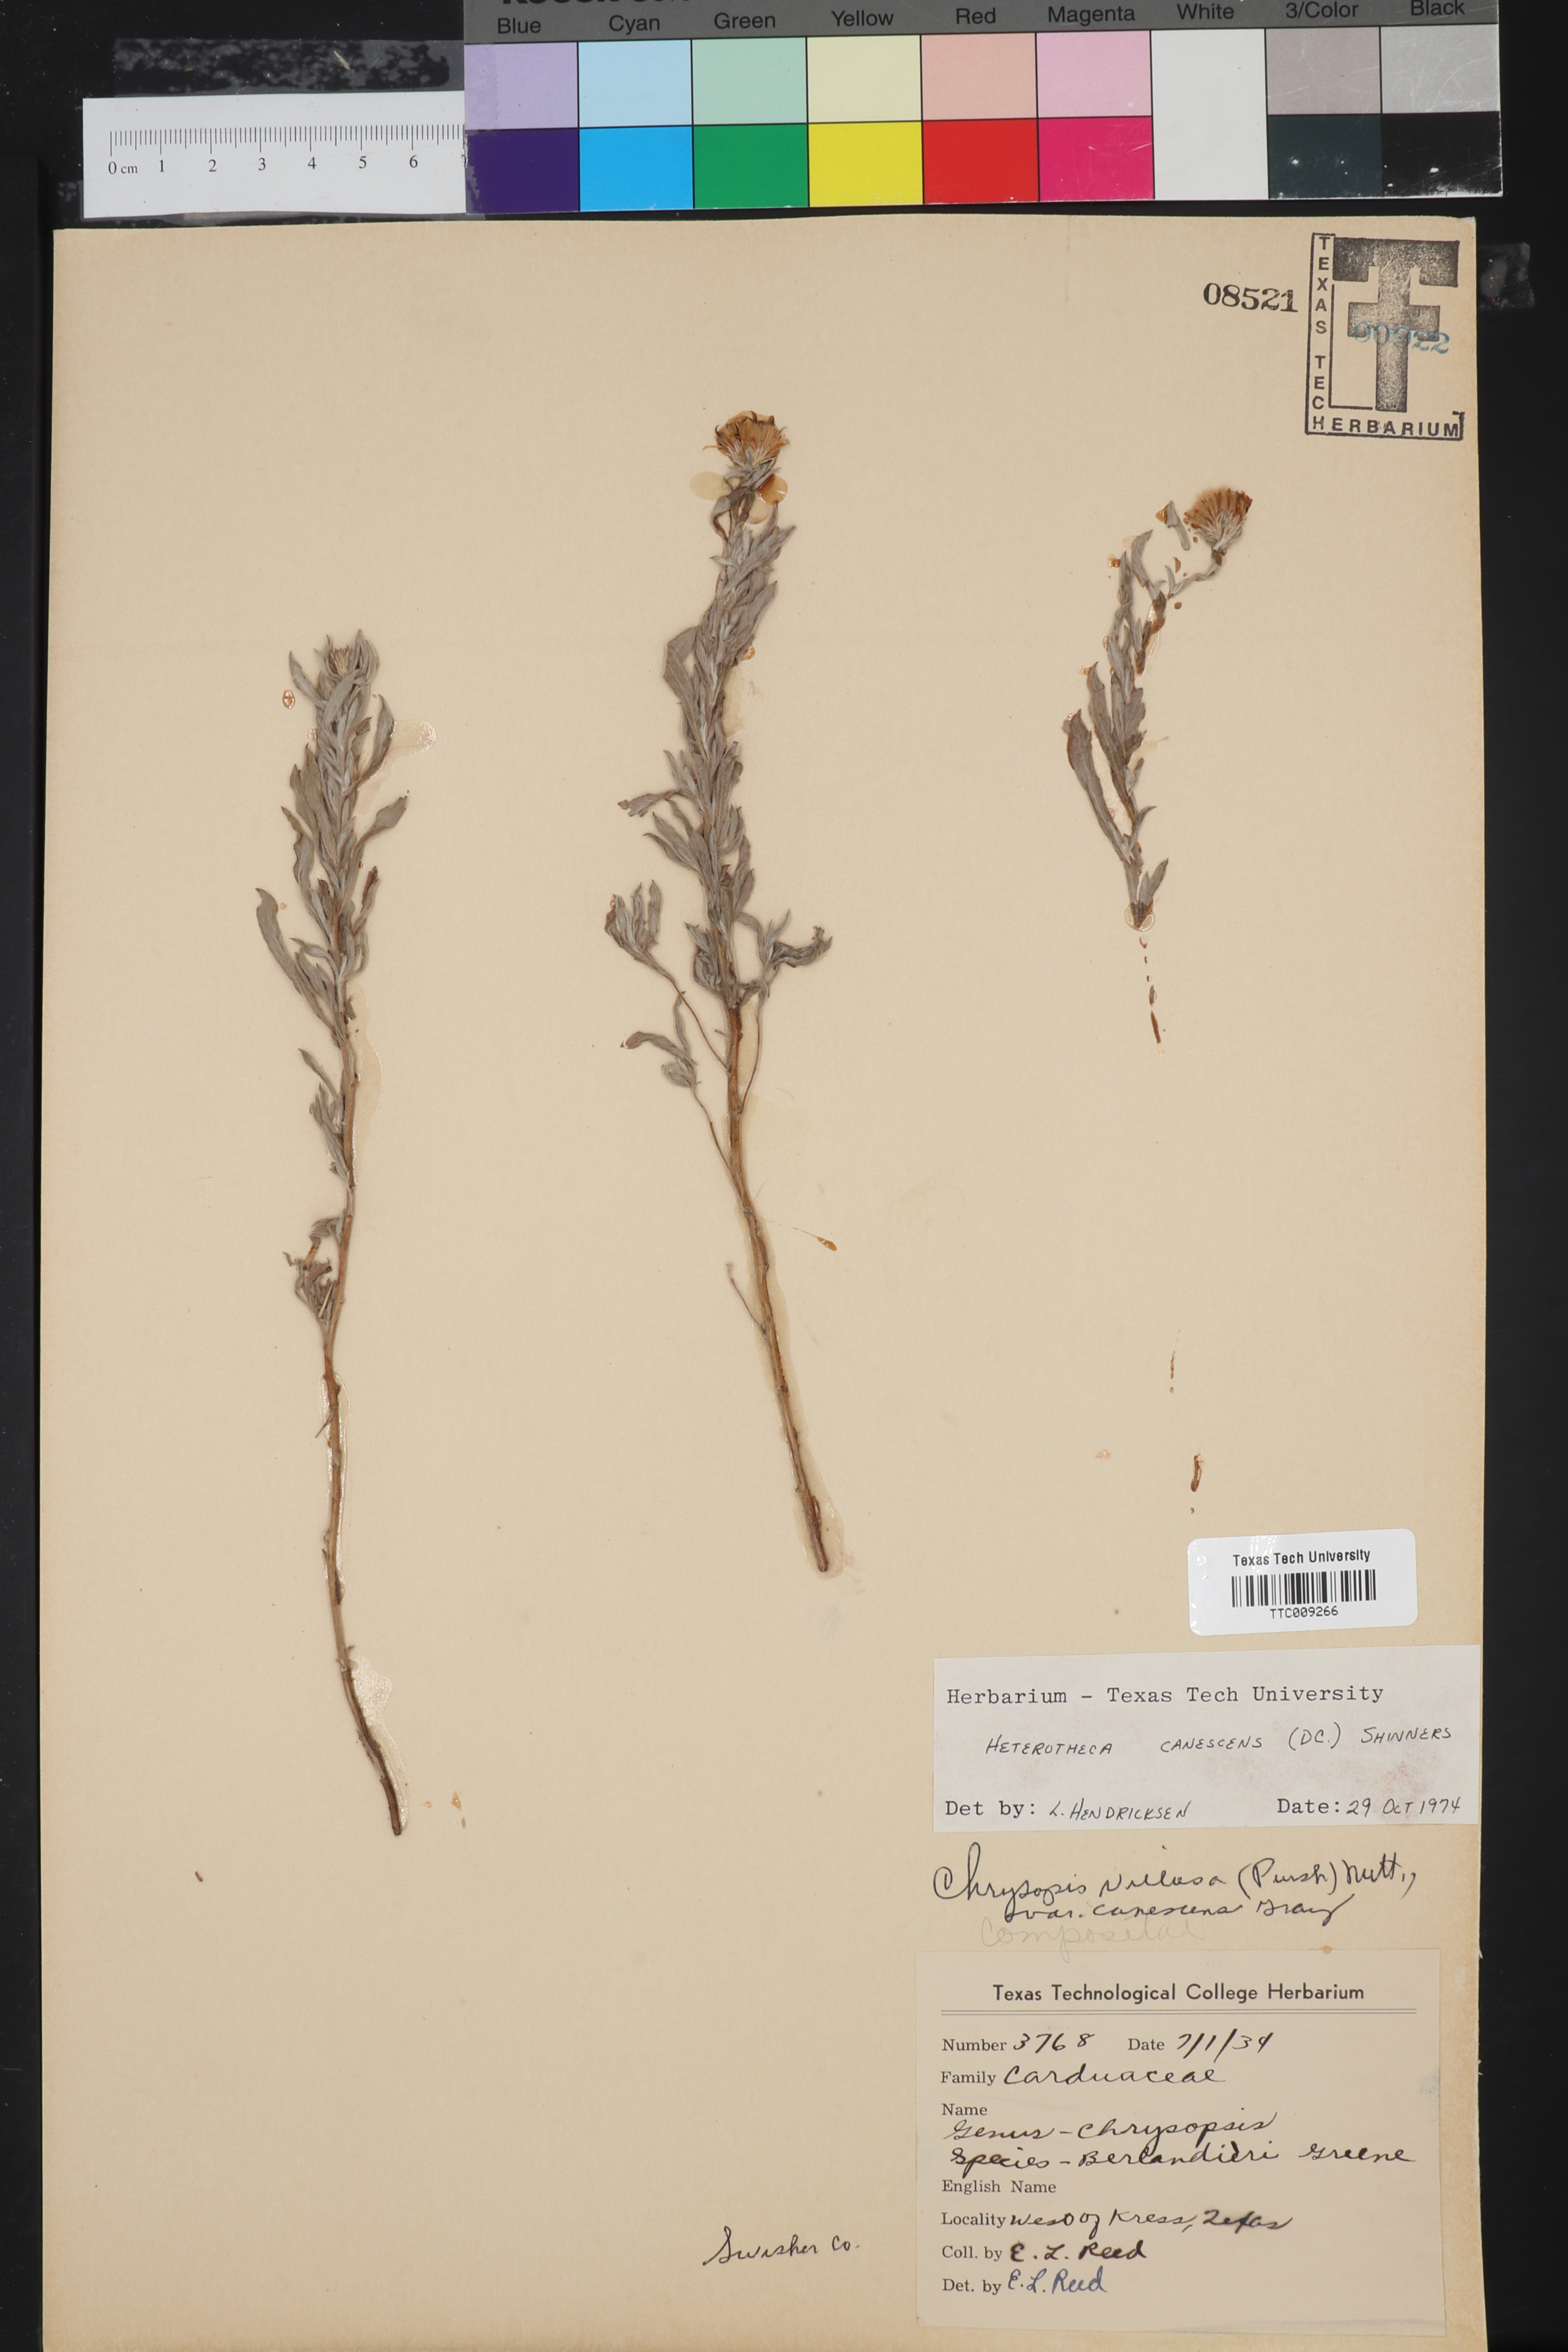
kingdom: Plantae
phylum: Tracheophyta
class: Magnoliopsida
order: Asterales
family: Asteraceae
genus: Heterotheca
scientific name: Heterotheca canescens
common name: Hoary golden-aster
